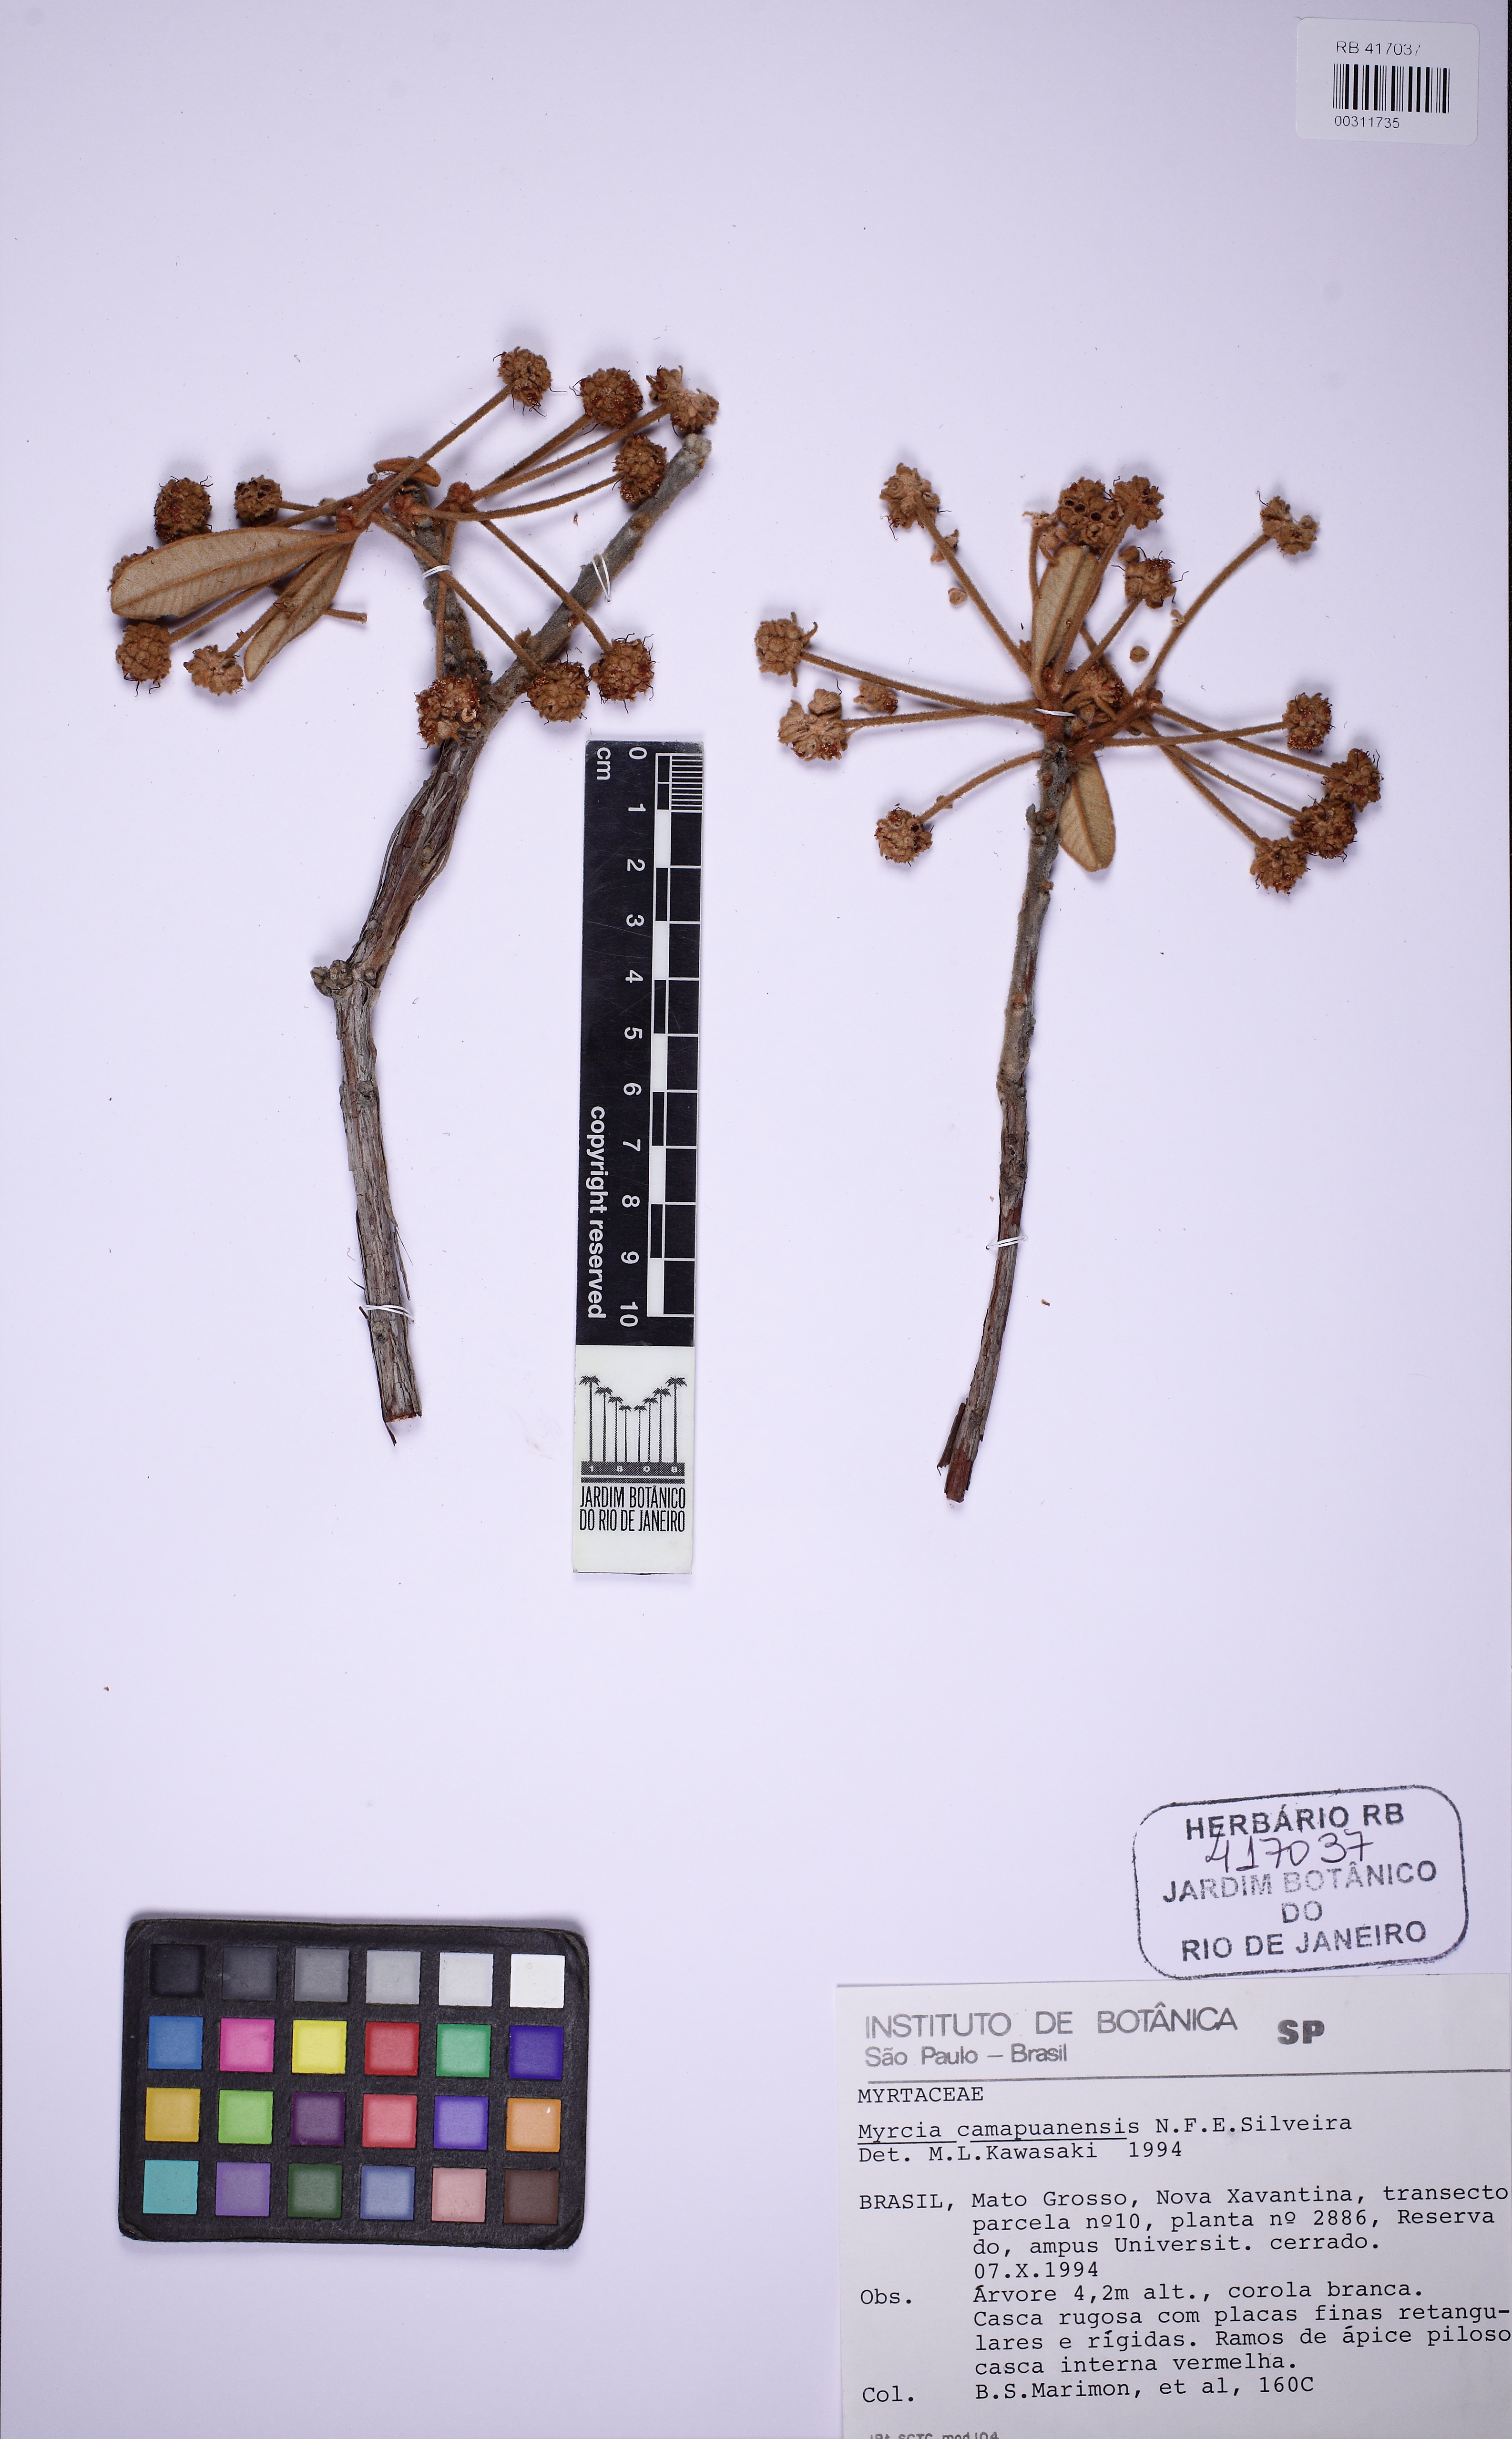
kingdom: Plantae
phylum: Tracheophyta
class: Magnoliopsida
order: Myrtales
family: Myrtaceae
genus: Myrcia
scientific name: Myrcia camapuanensis
